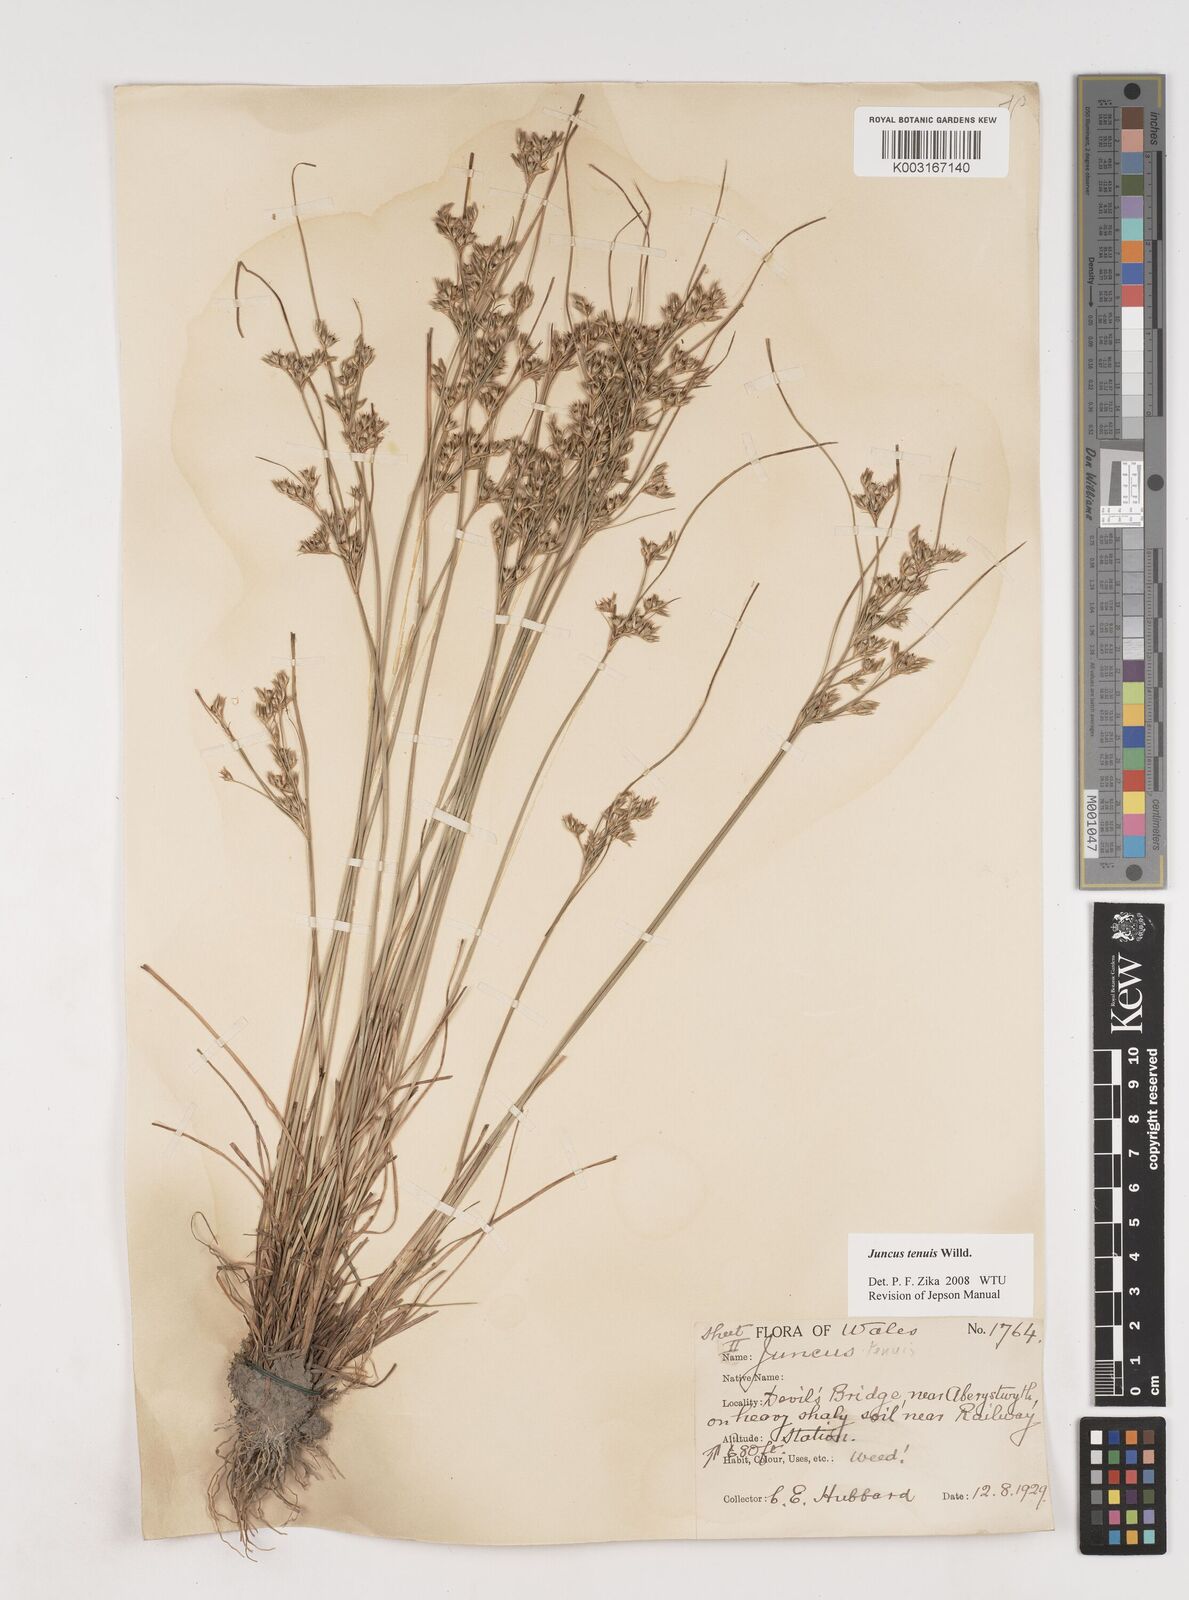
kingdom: Plantae
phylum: Tracheophyta
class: Liliopsida
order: Poales
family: Juncaceae
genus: Juncus
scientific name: Juncus tenuis
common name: Slender rush
